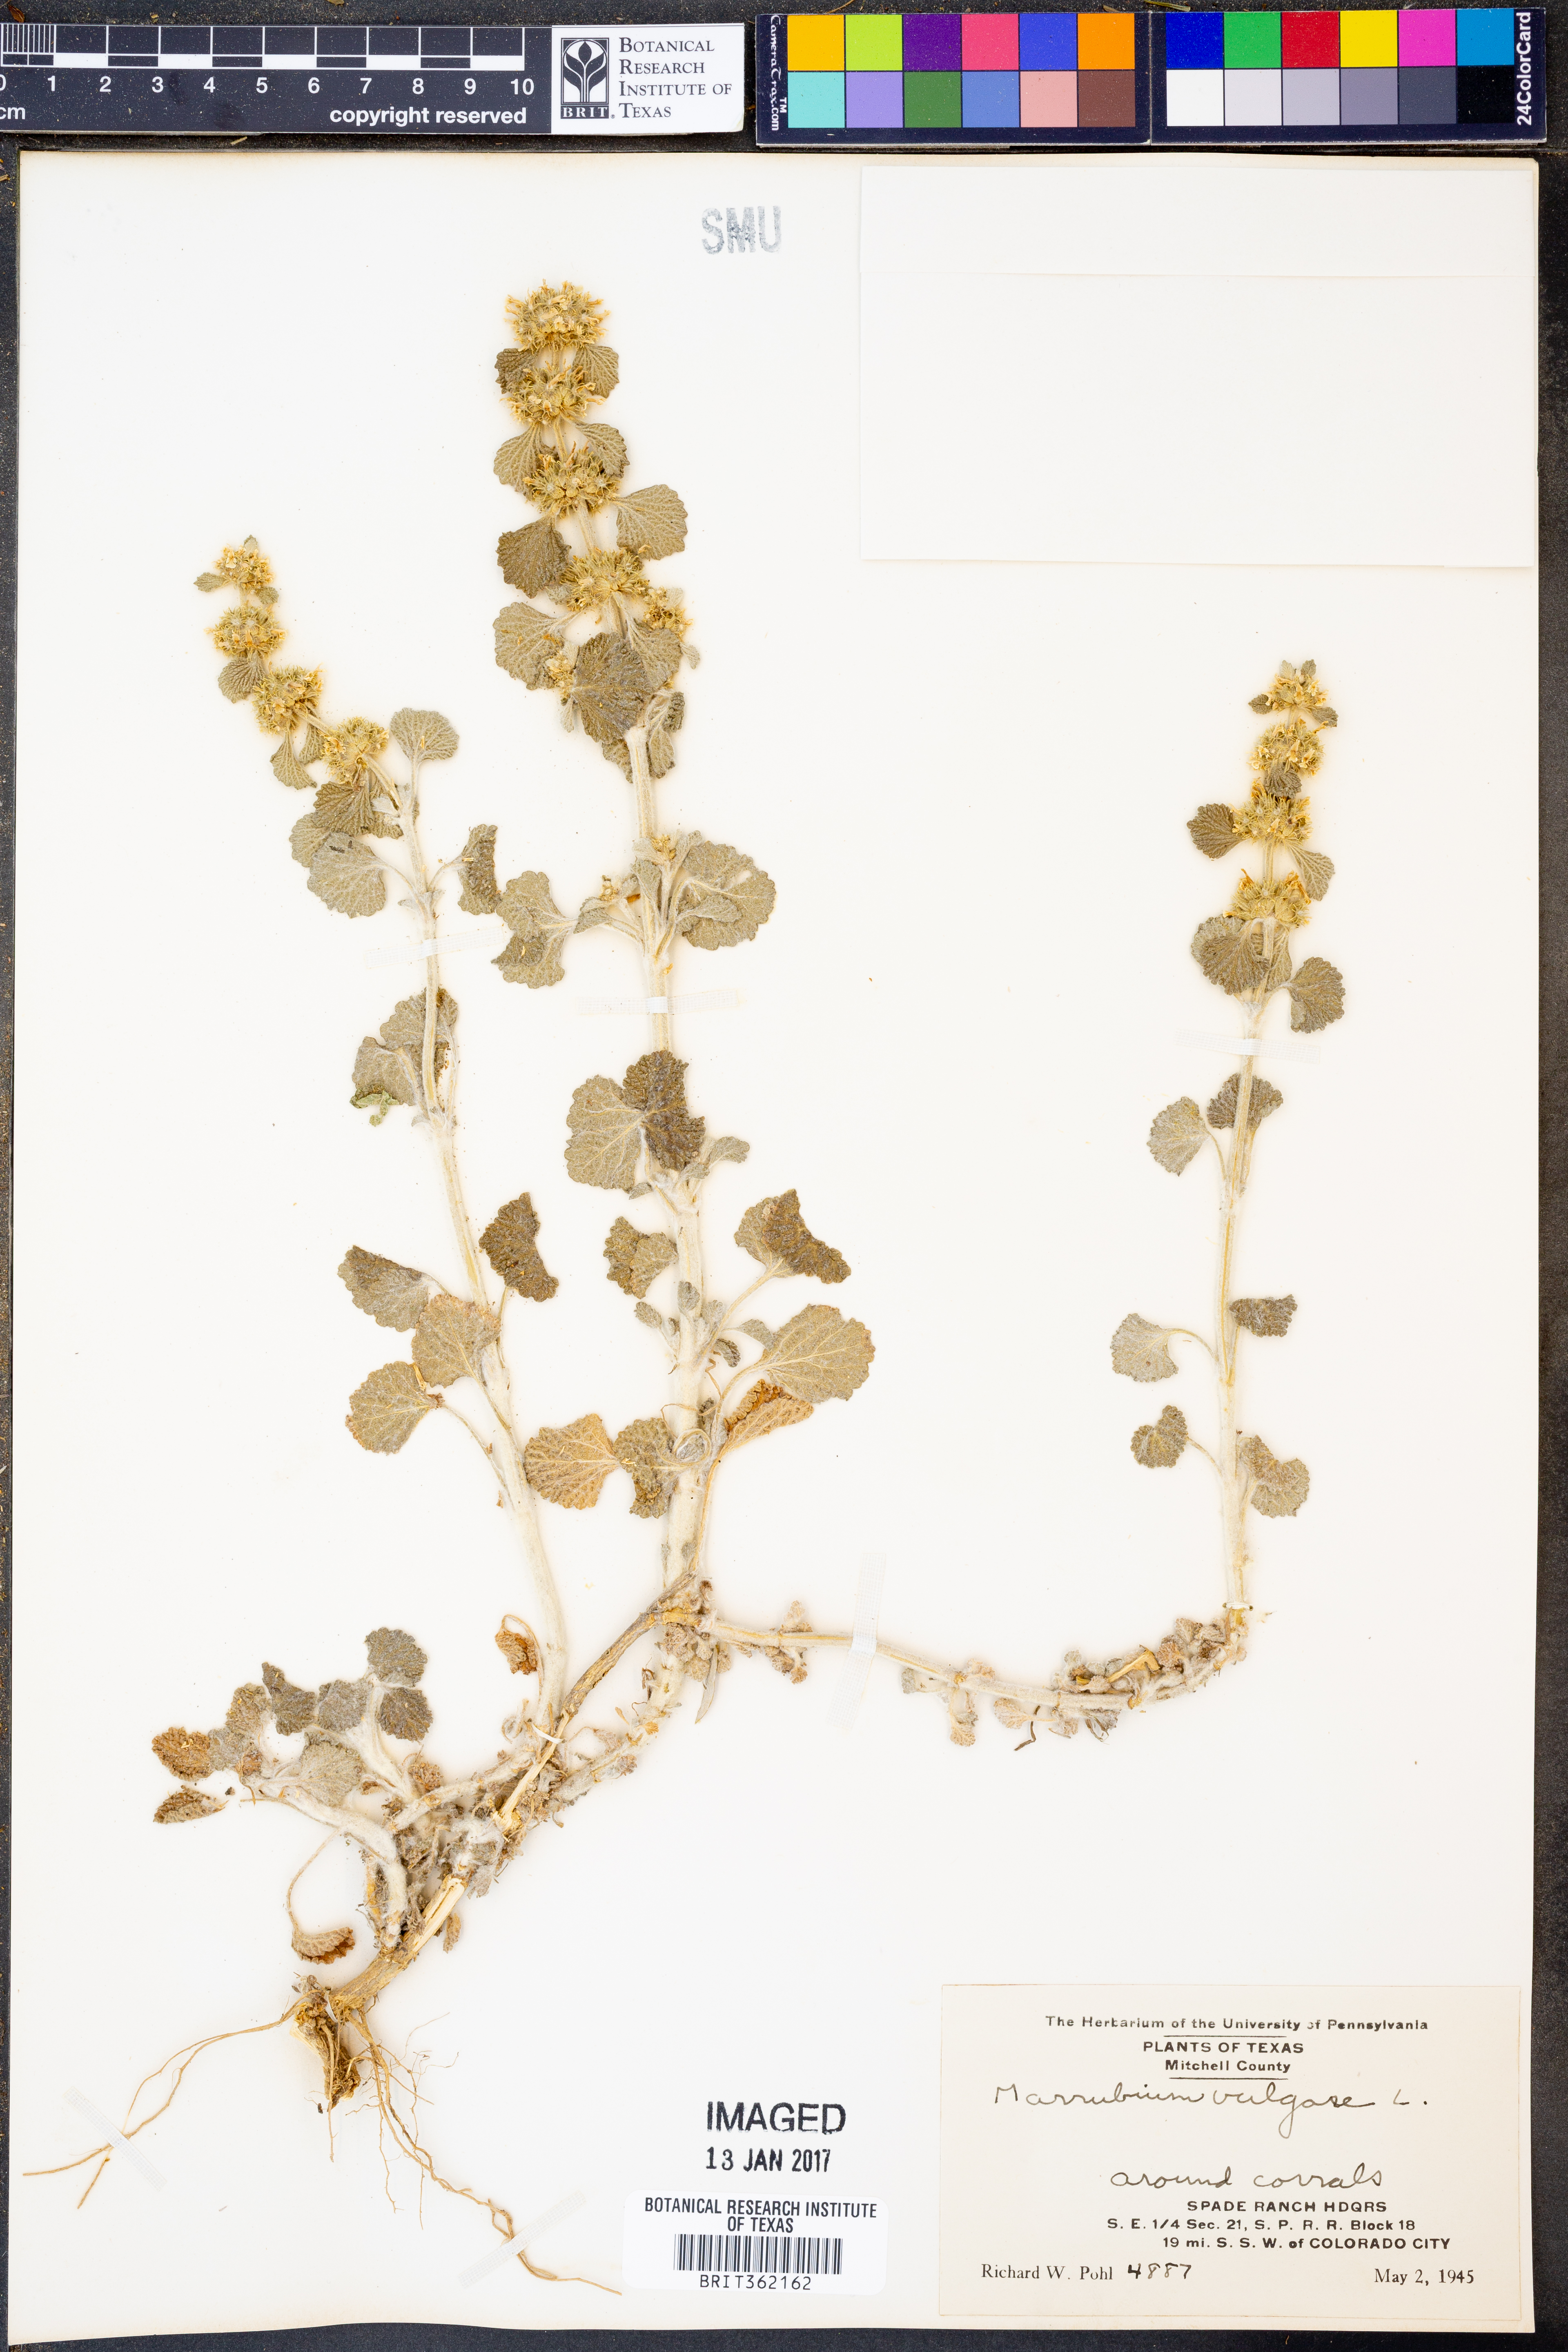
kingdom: Plantae
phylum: Tracheophyta
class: Magnoliopsida
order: Lamiales
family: Lamiaceae
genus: Marrubium
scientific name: Marrubium vulgare
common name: Horehound
